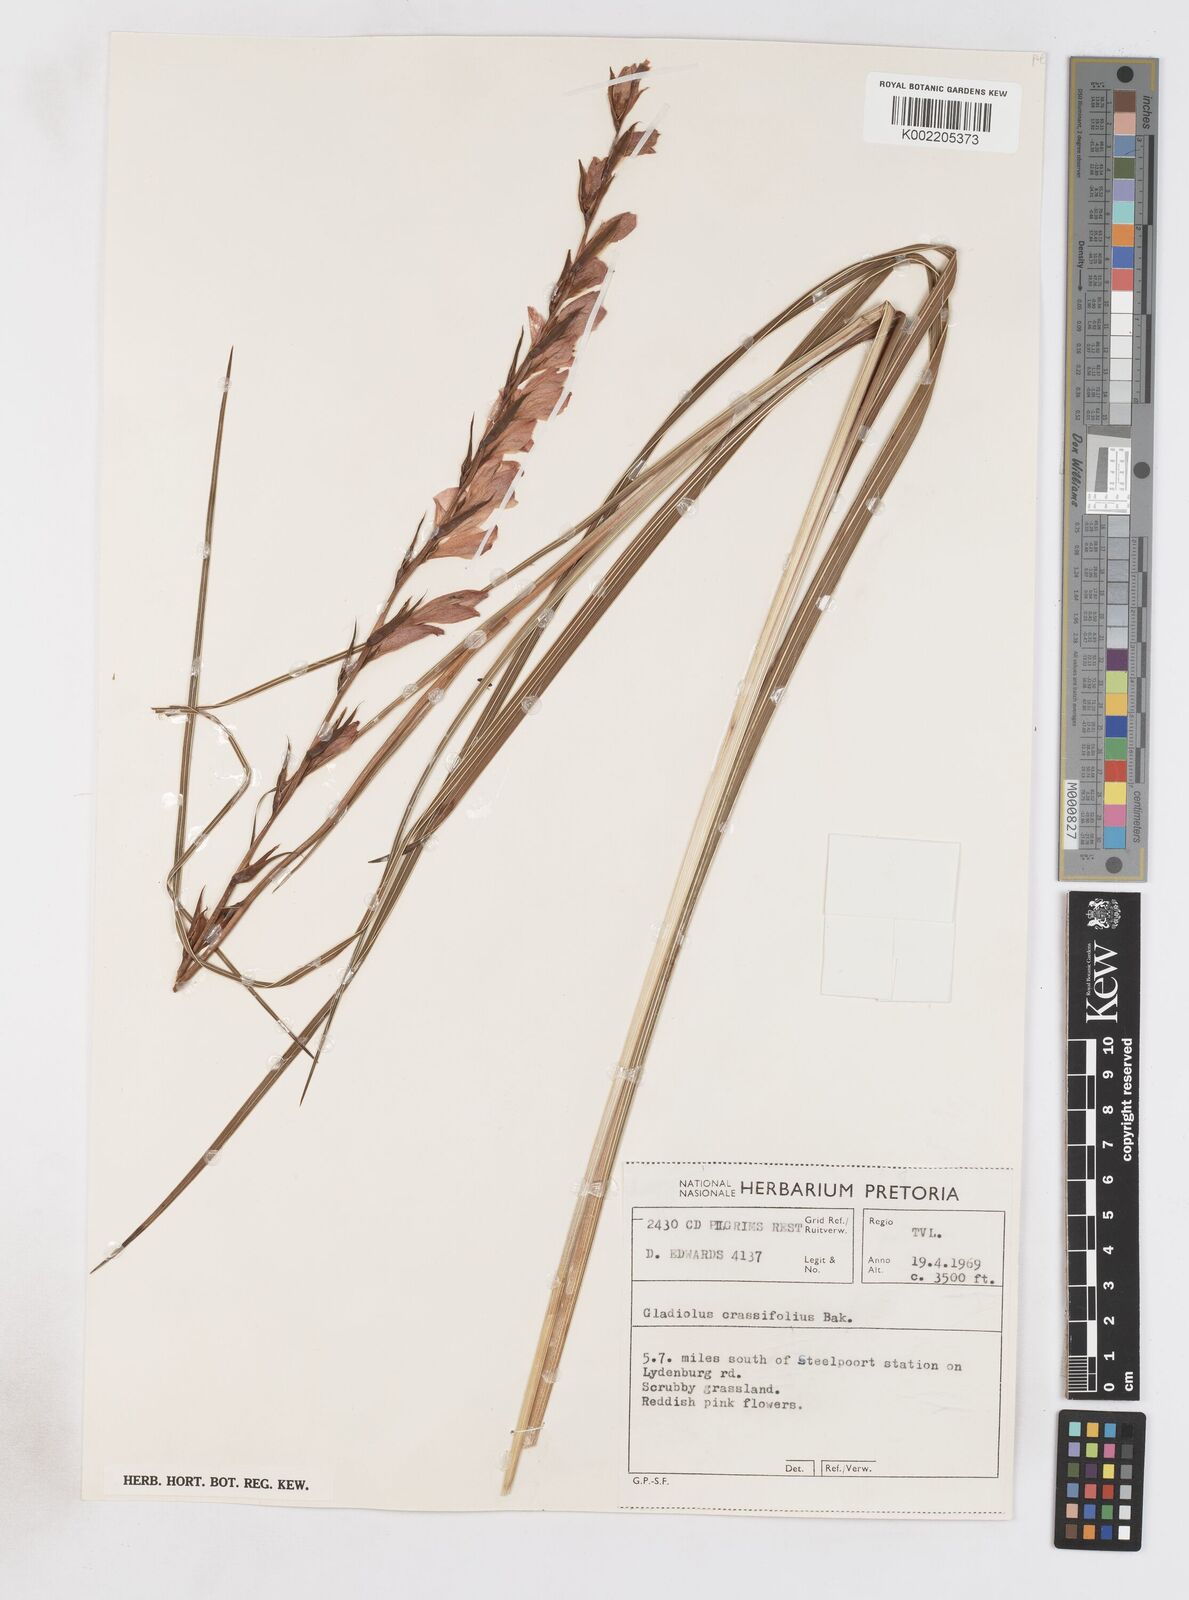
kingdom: Plantae
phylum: Tracheophyta
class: Liliopsida
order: Asparagales
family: Iridaceae
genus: Gladiolus
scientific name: Gladiolus crassifolius
